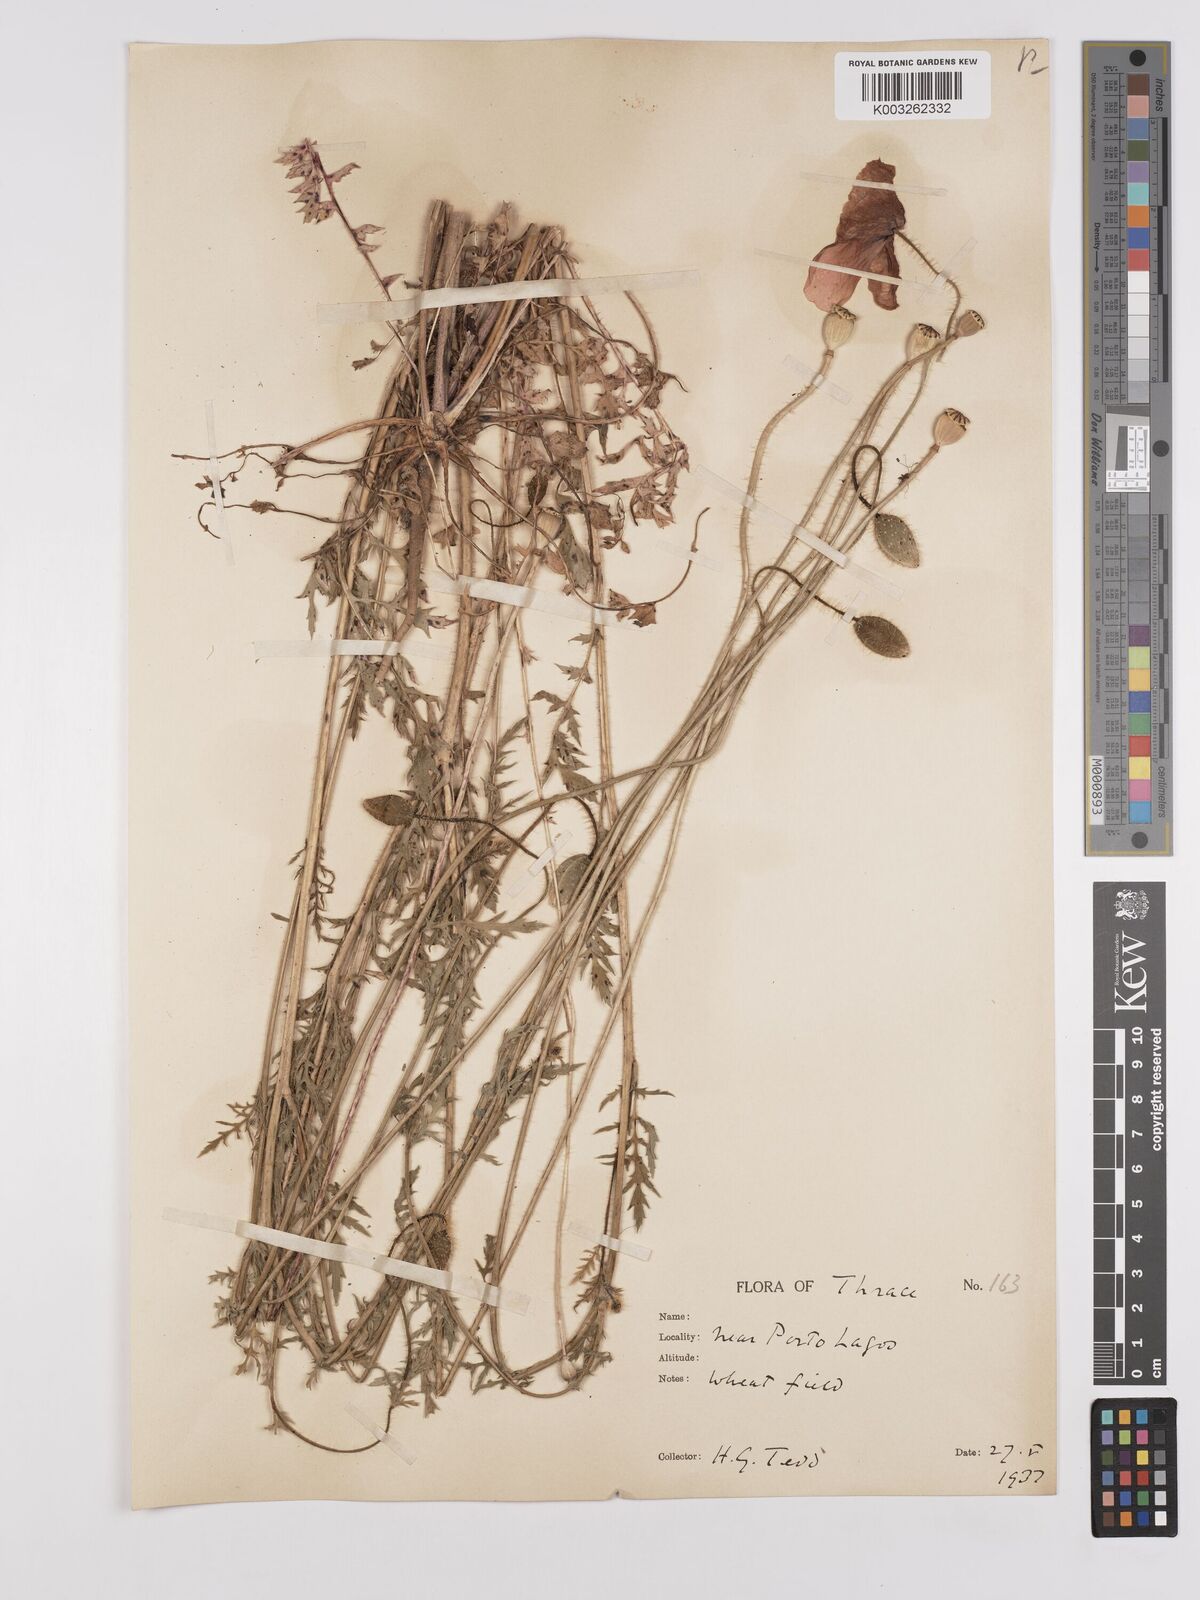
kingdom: Plantae
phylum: Tracheophyta
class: Magnoliopsida
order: Ranunculales
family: Papaveraceae
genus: Papaver
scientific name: Papaver rhoeas
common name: Corn poppy
